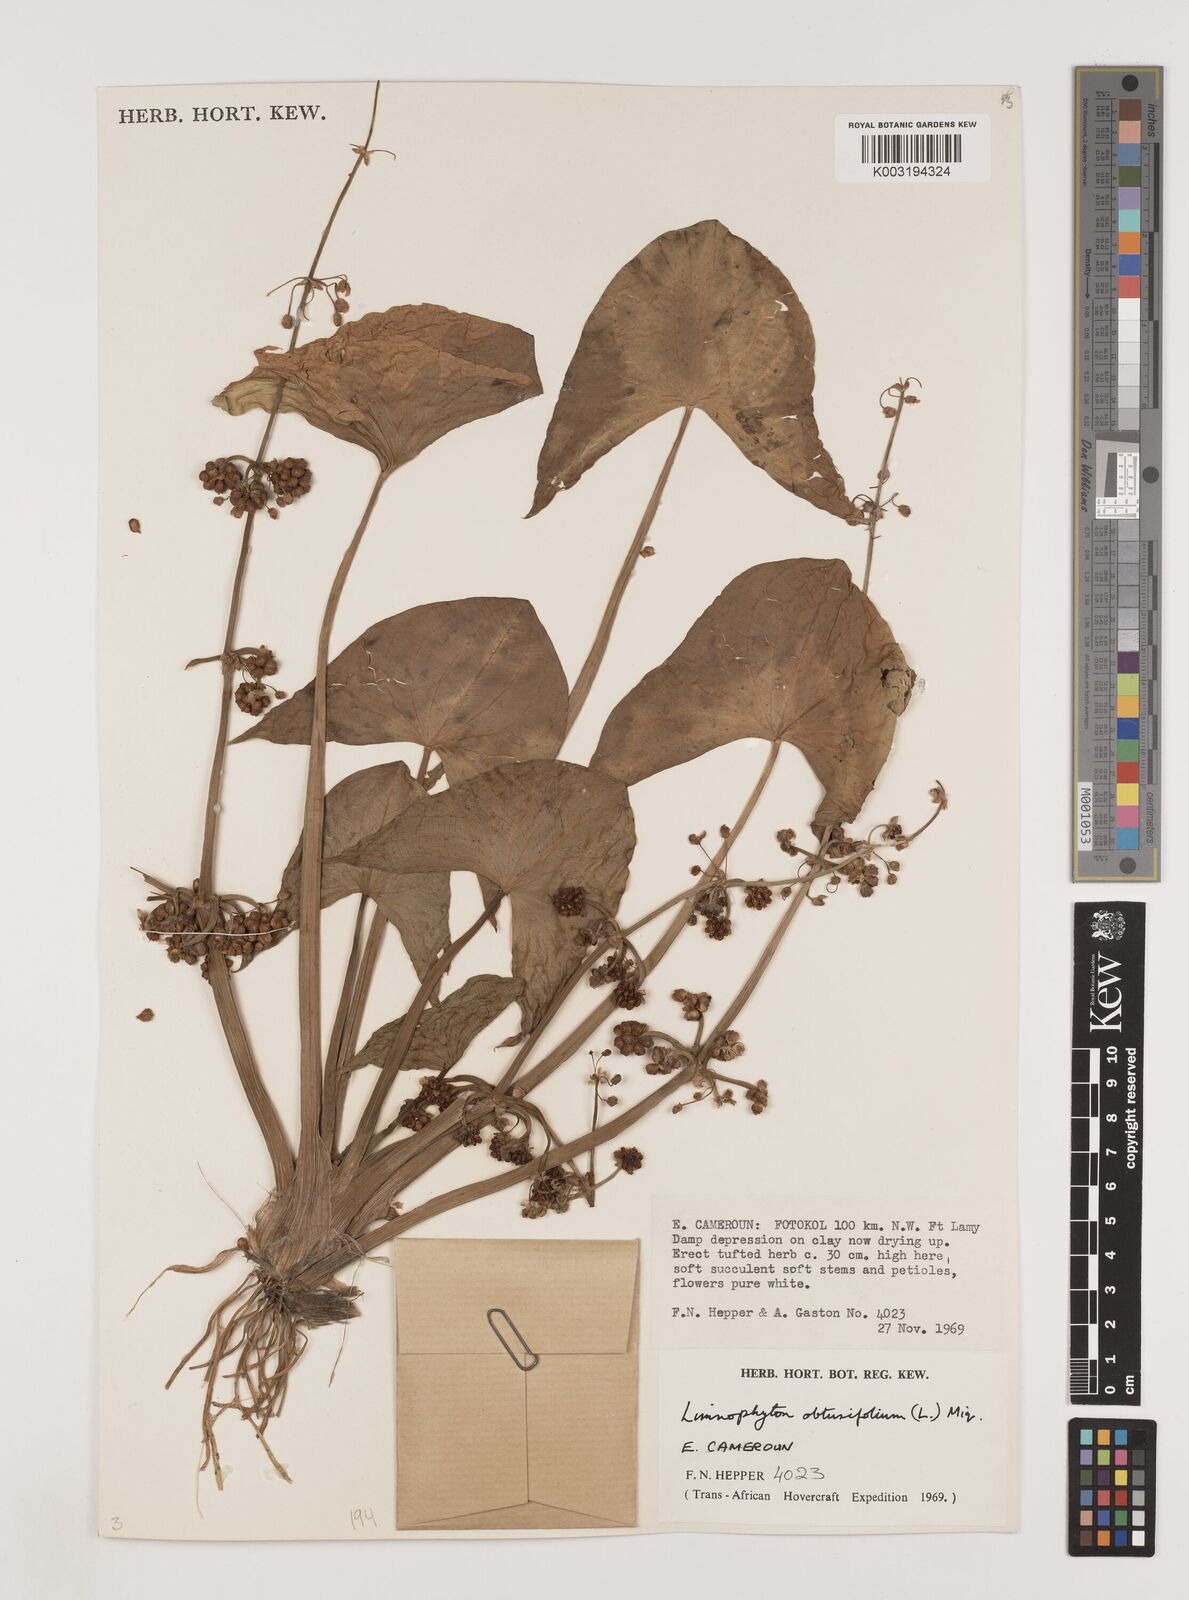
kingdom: Plantae
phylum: Tracheophyta
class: Liliopsida
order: Alismatales
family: Alismataceae
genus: Limnophyton
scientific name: Limnophyton obtusifolium
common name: Arrow head
